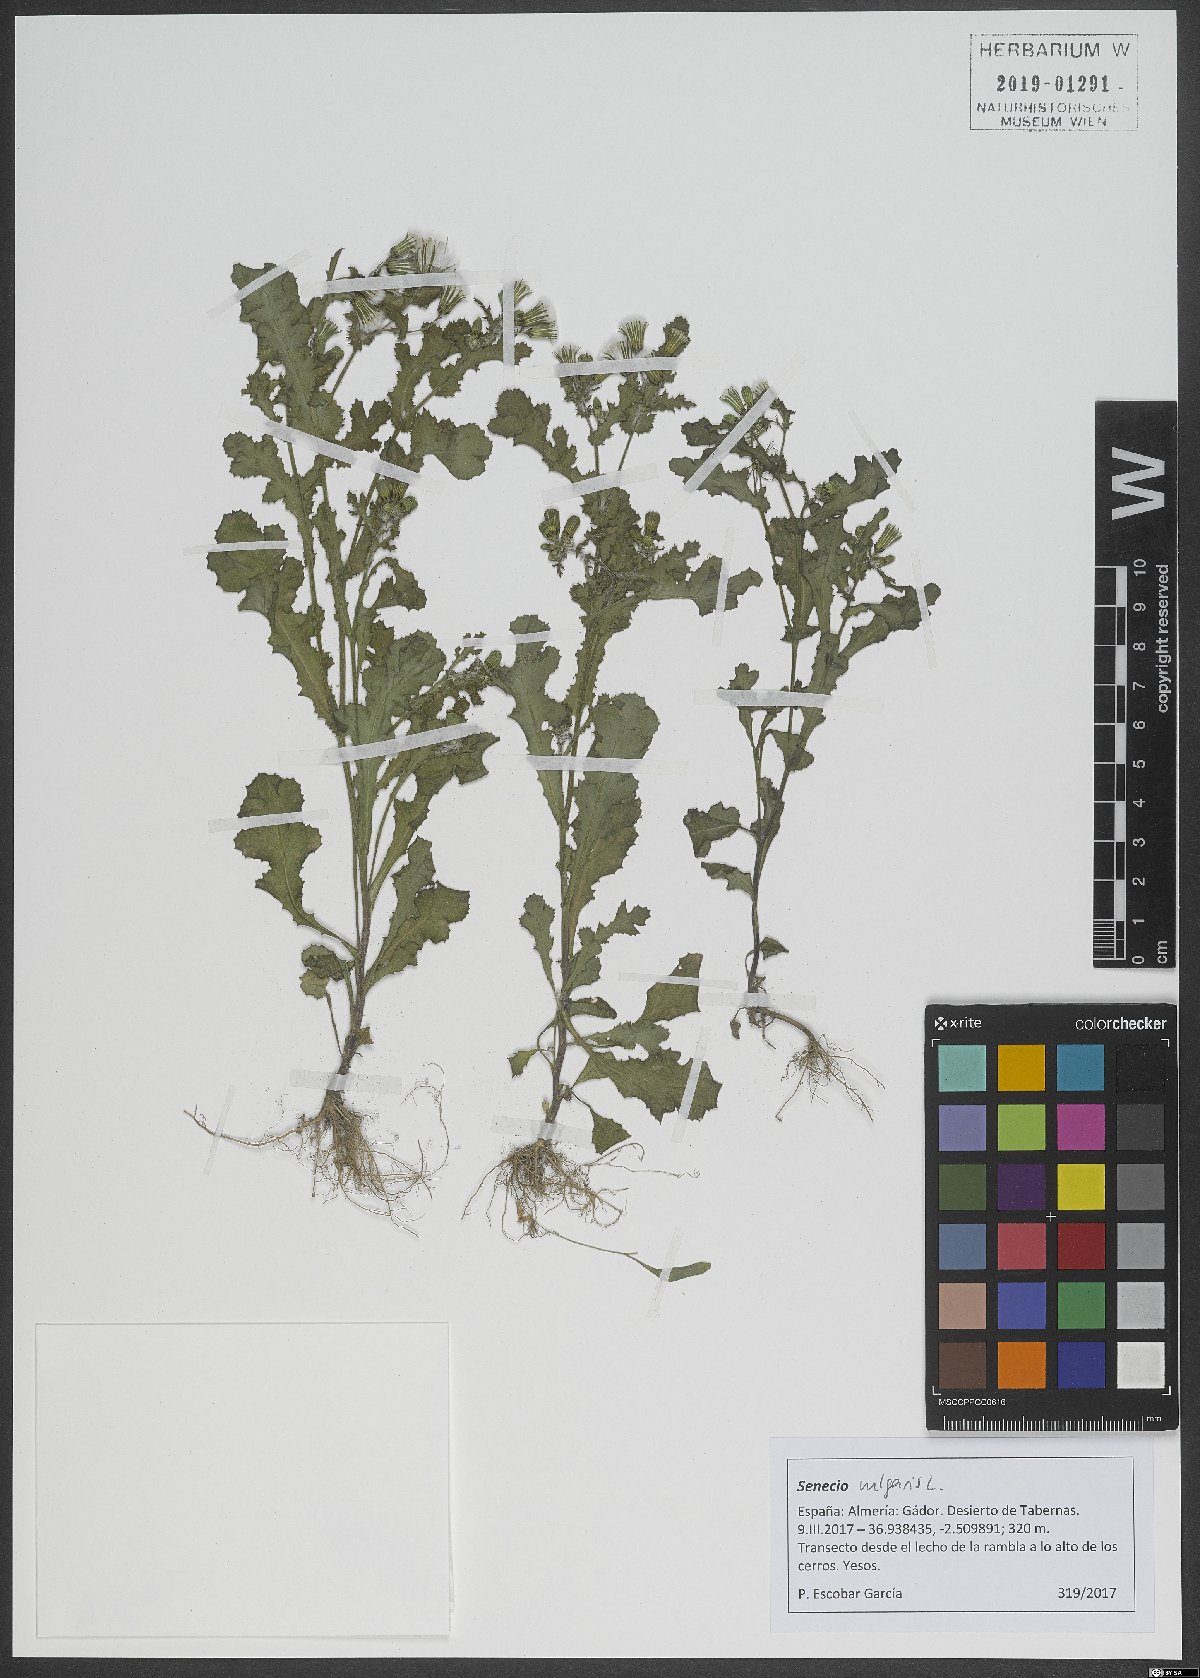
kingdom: Plantae
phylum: Tracheophyta
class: Magnoliopsida
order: Asterales
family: Asteraceae
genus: Senecio
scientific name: Senecio vulgaris
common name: Old-man-in-the-spring
